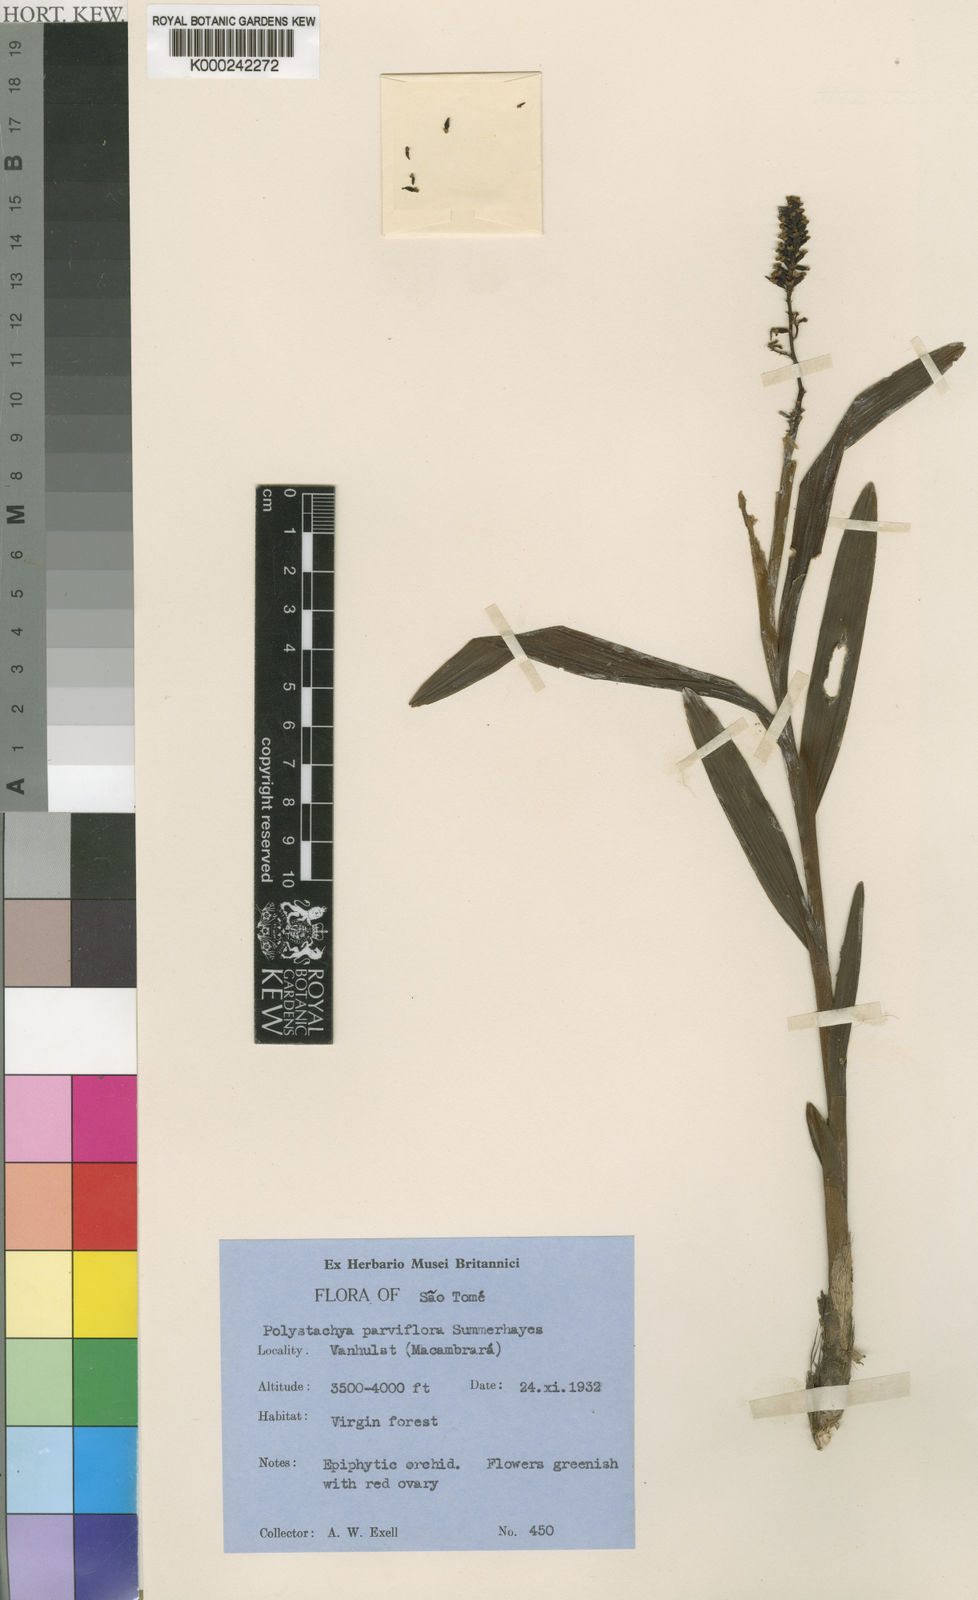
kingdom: Plantae
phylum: Tracheophyta
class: Liliopsida
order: Asparagales
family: Orchidaceae
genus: Polystachya
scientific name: Polystachya parviflora
